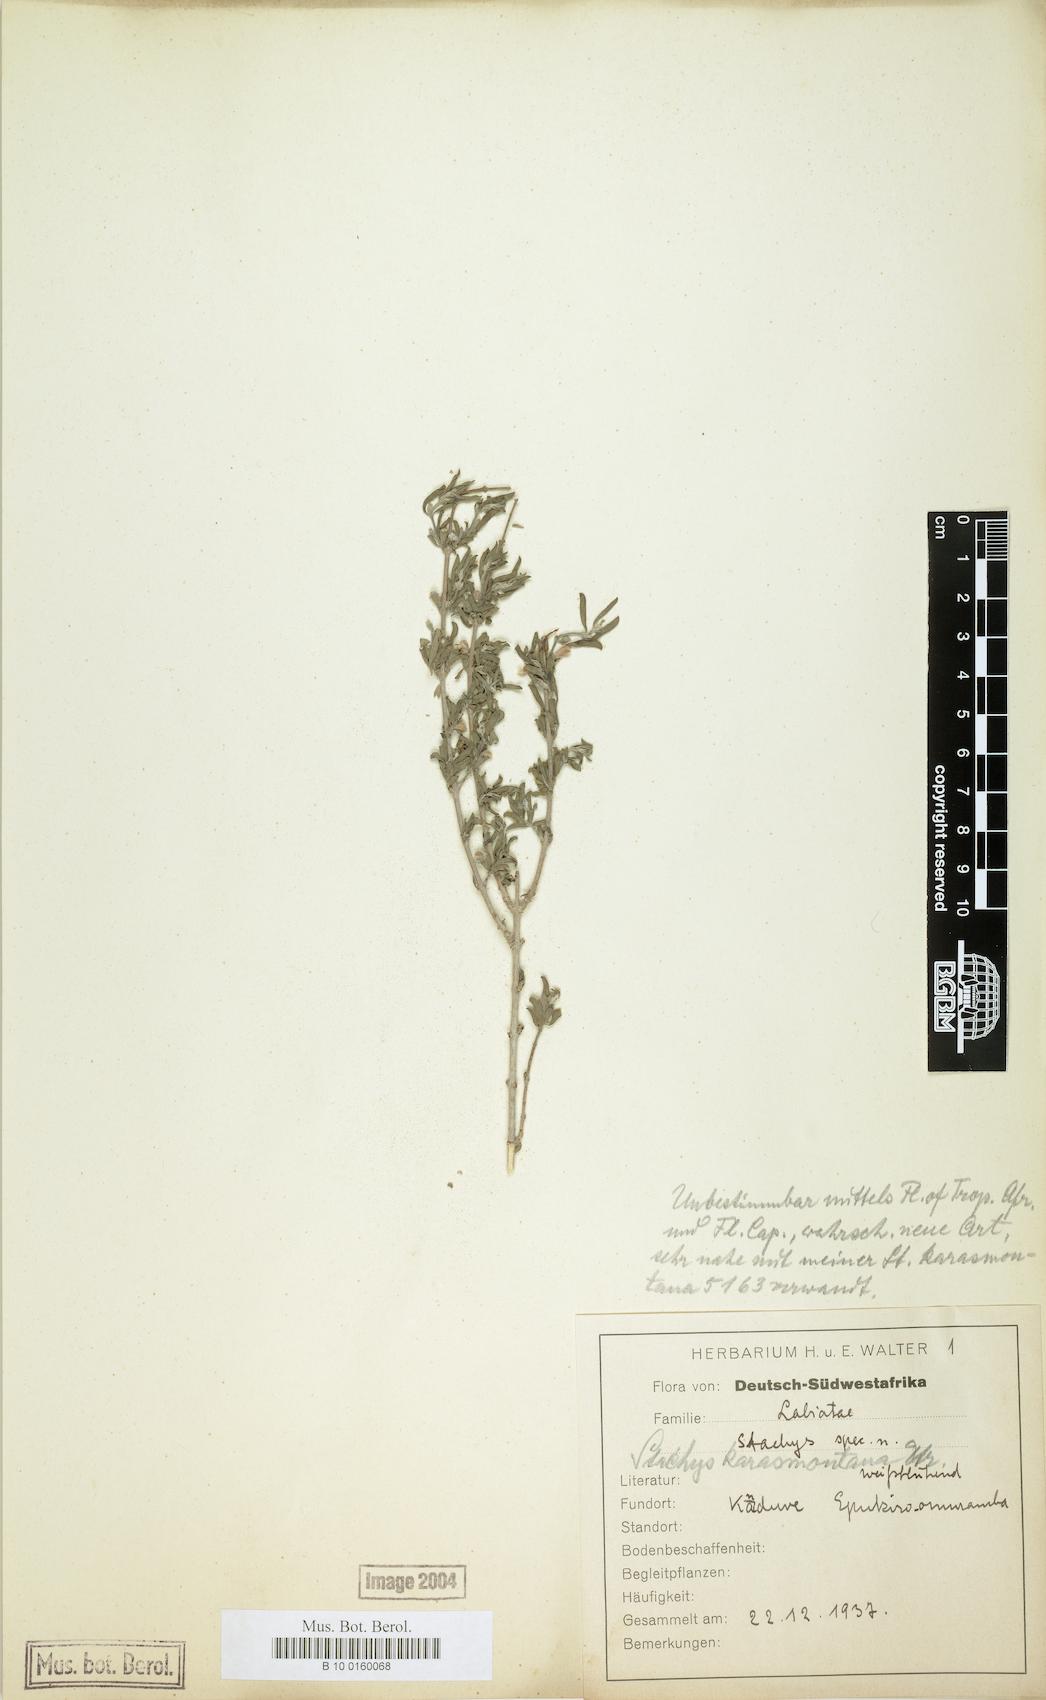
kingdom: Plantae
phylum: Tracheophyta
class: Magnoliopsida
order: Lamiales
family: Lamiaceae
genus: Stachys
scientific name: Stachys spathulata
